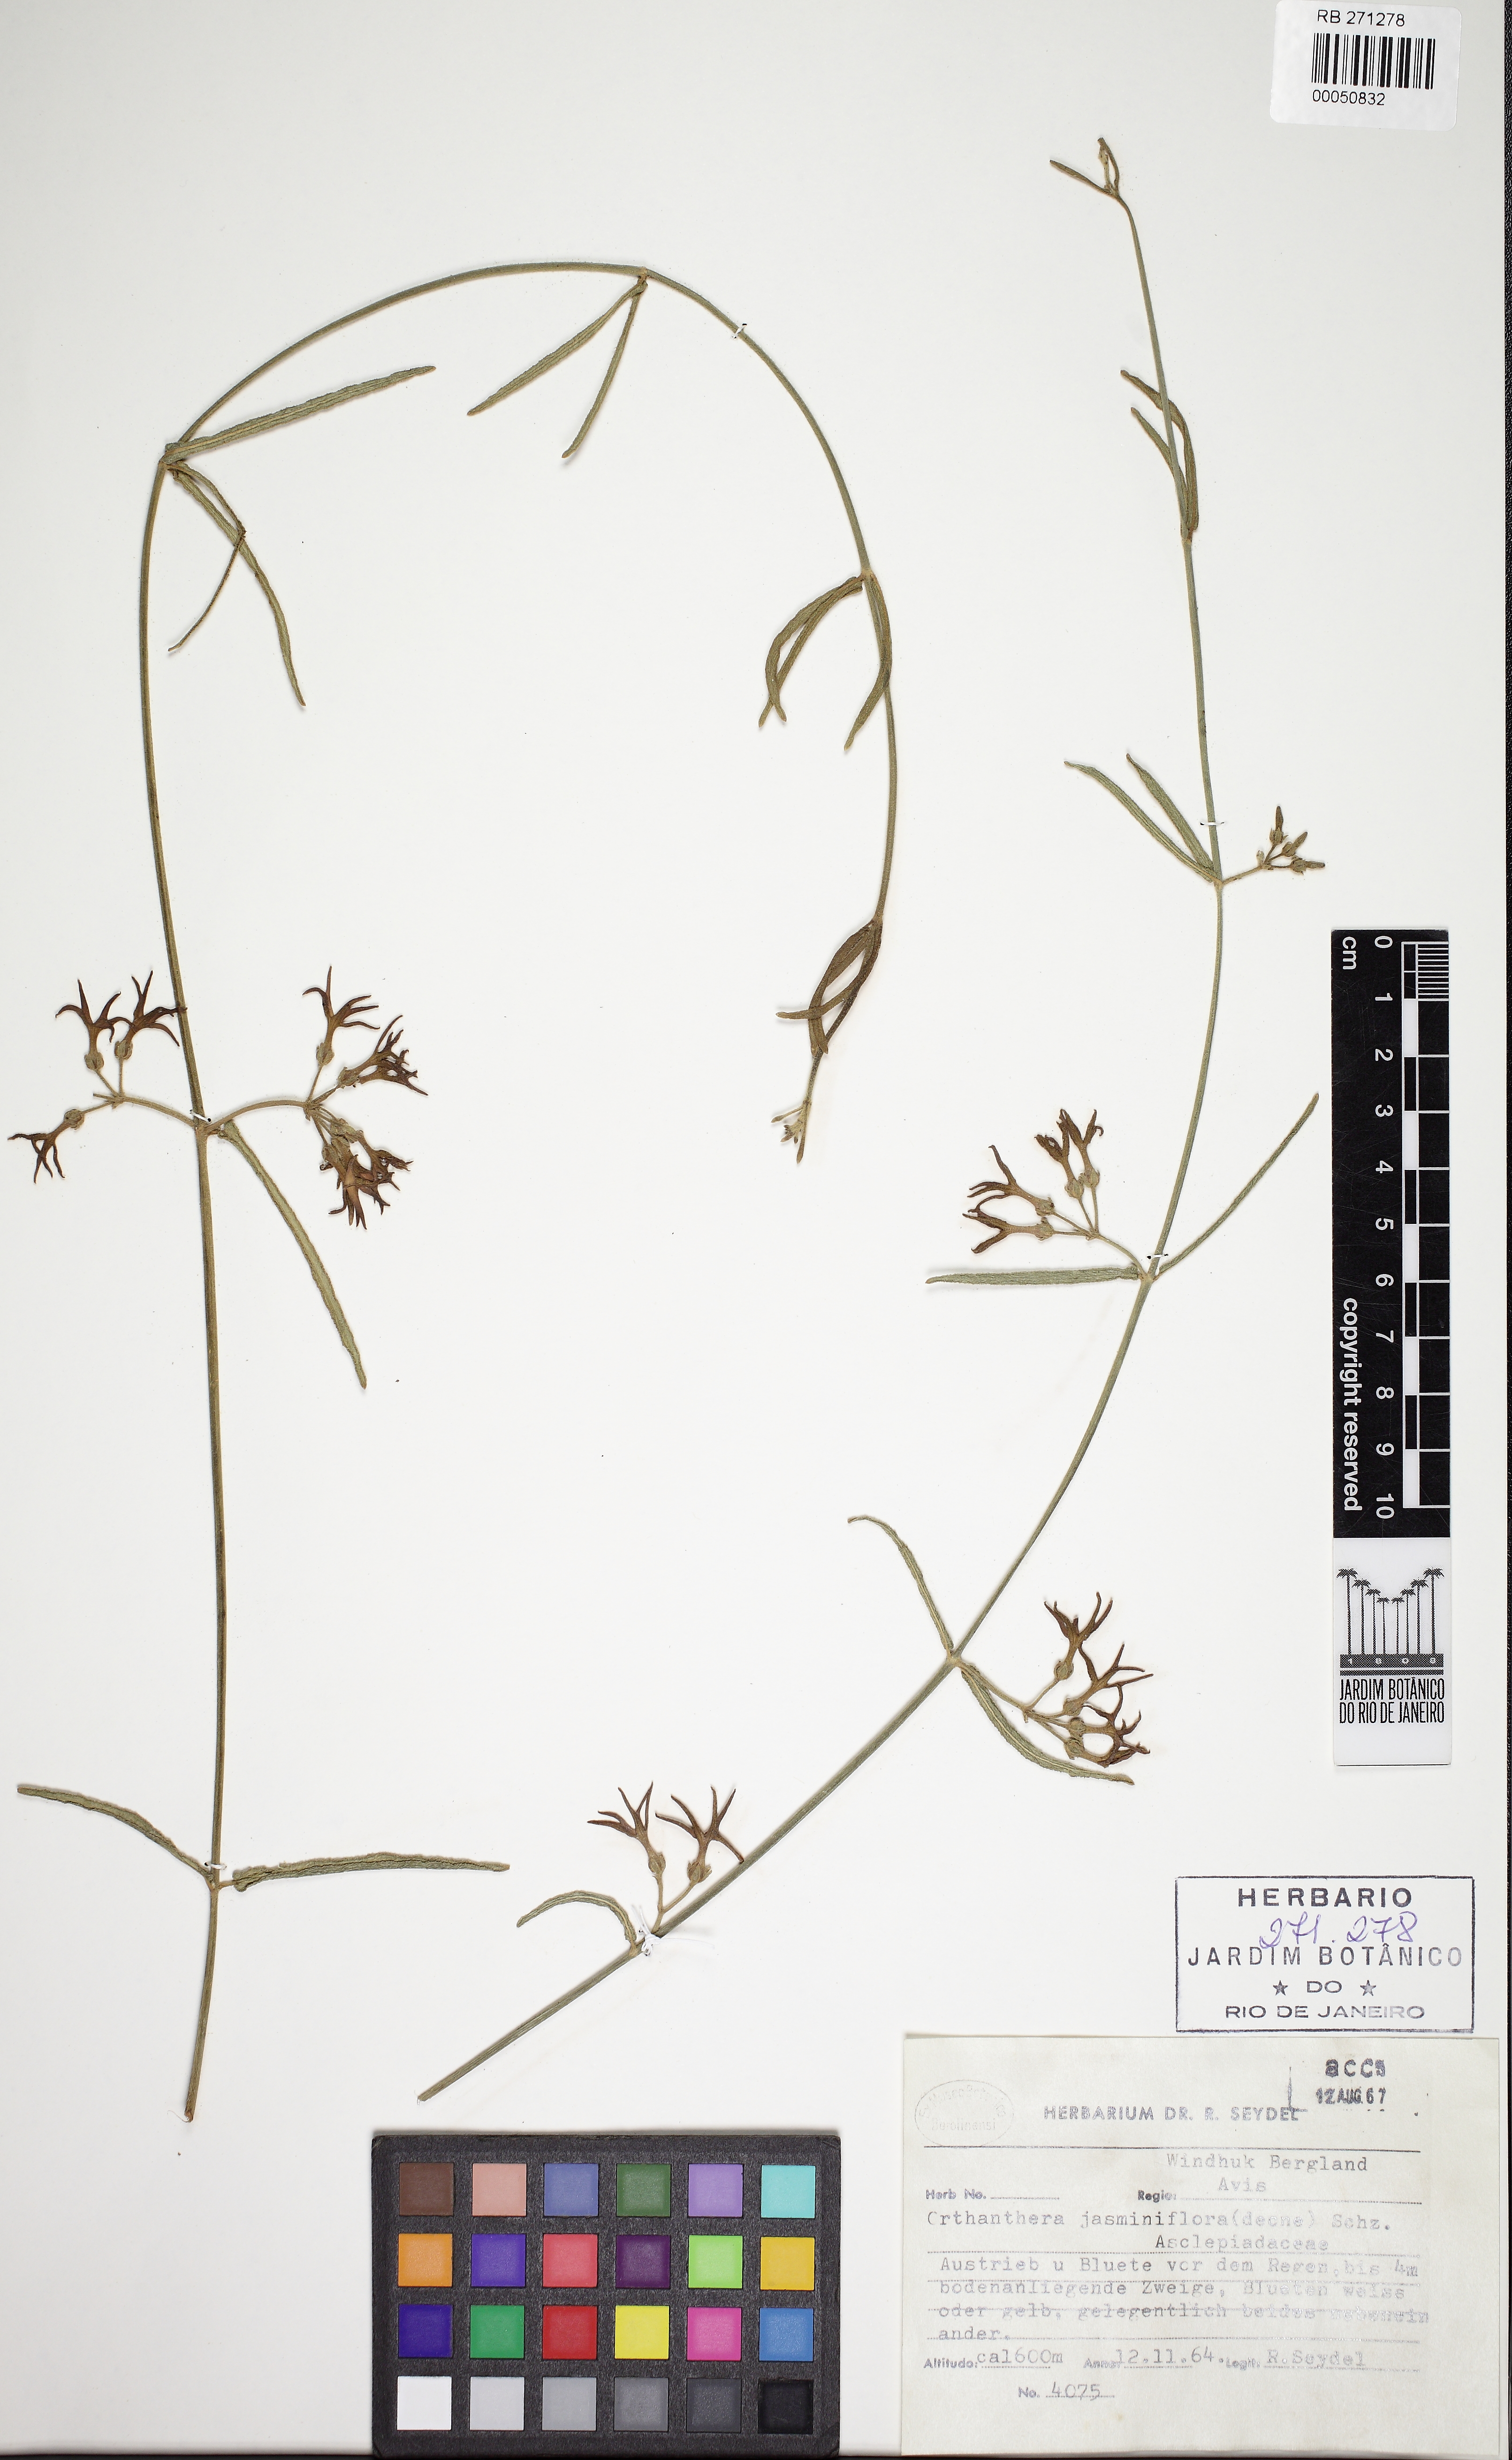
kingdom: Plantae
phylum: Tracheophyta
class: Magnoliopsida
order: Gentianales
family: Apocynaceae
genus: Orthanthera
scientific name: Orthanthera jasminiflora
